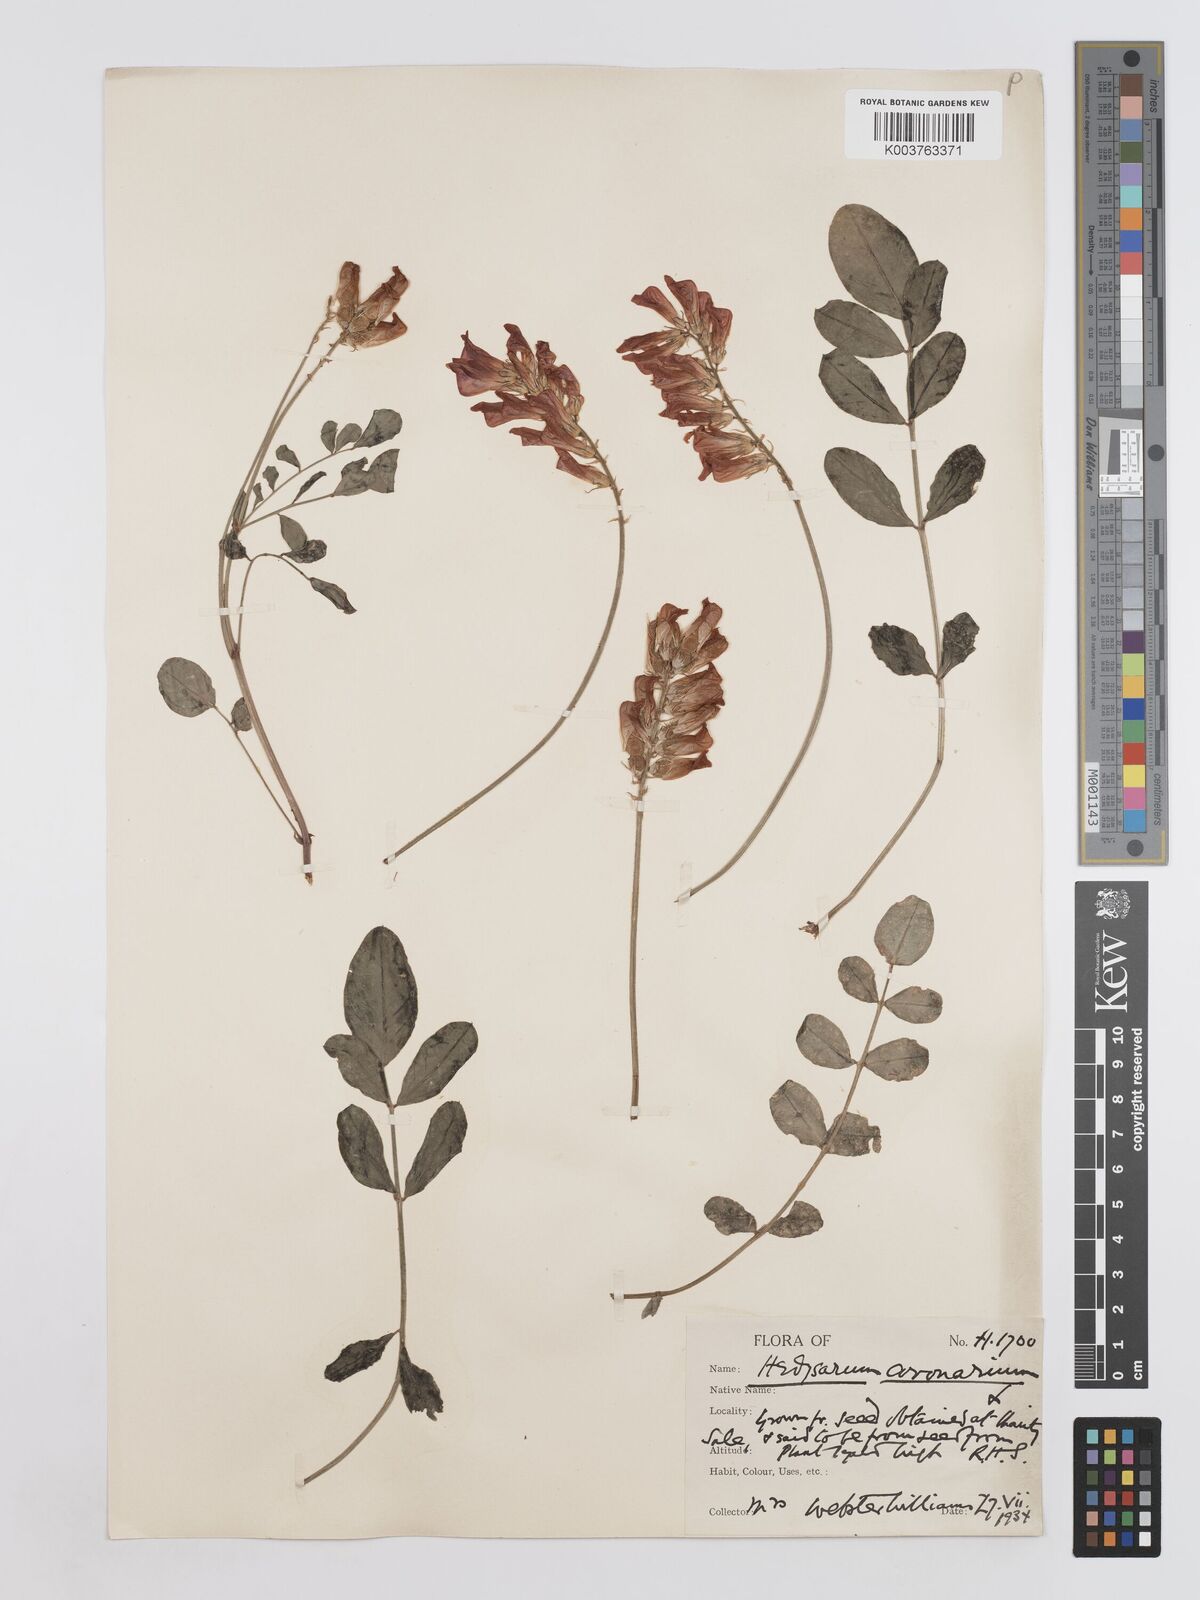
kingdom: Plantae
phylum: Tracheophyta
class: Magnoliopsida
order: Fabales
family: Fabaceae
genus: Sulla
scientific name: Sulla coronaria
